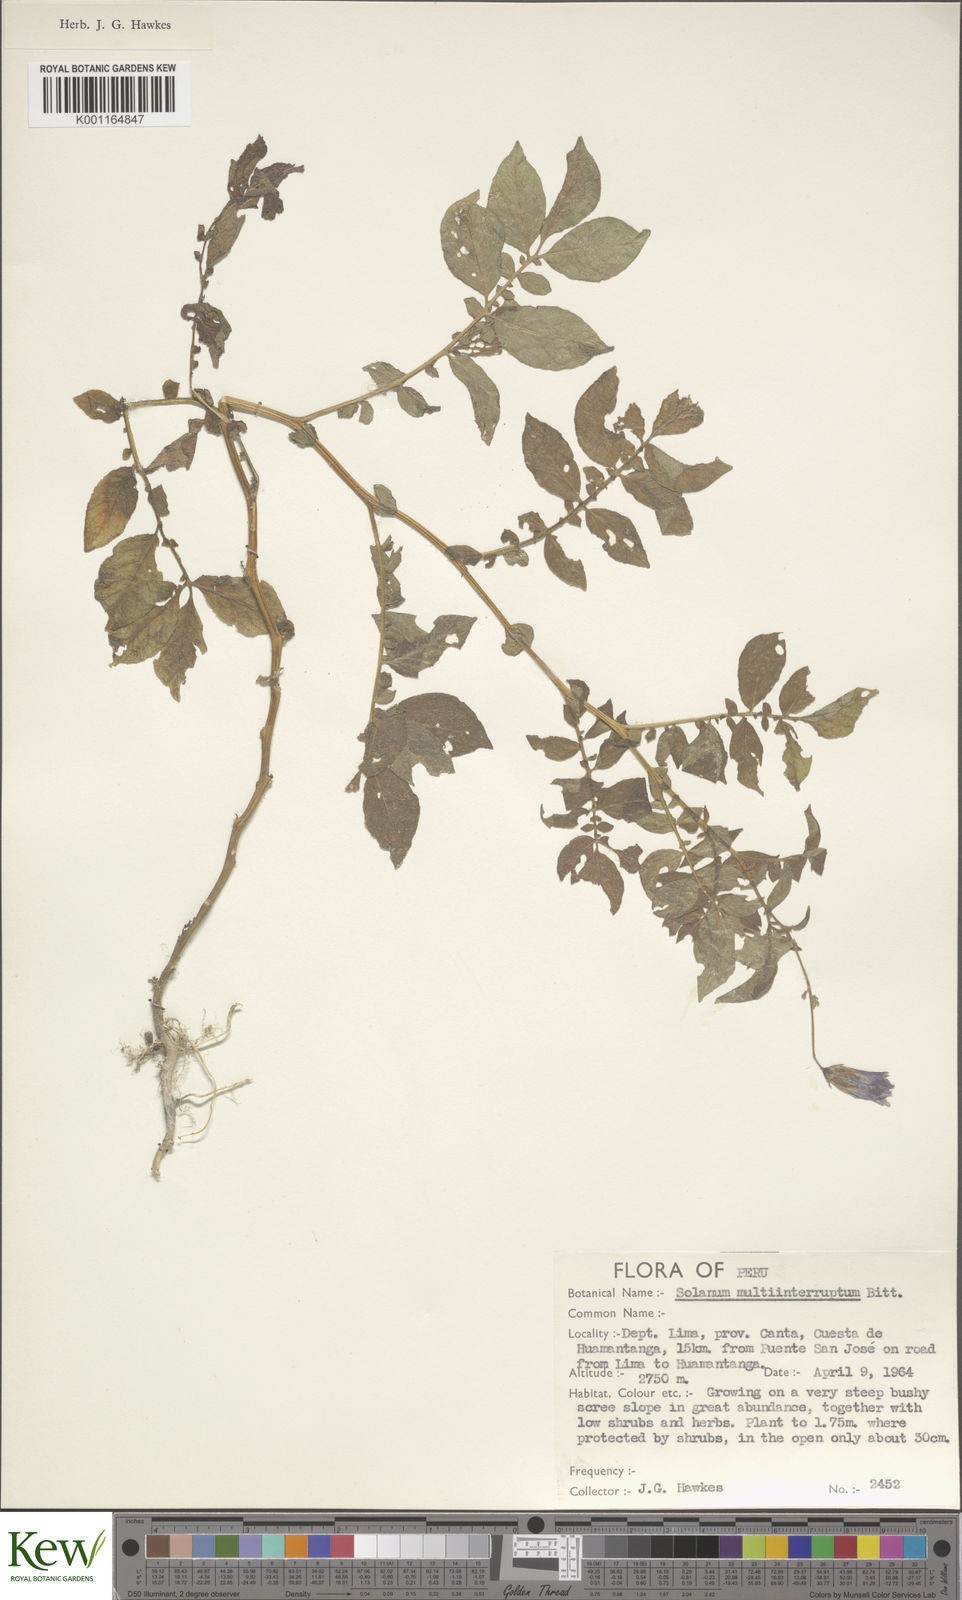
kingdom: Plantae
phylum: Tracheophyta
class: Magnoliopsida
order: Solanales
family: Solanaceae
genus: Solanum
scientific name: Solanum multiinterruptum
